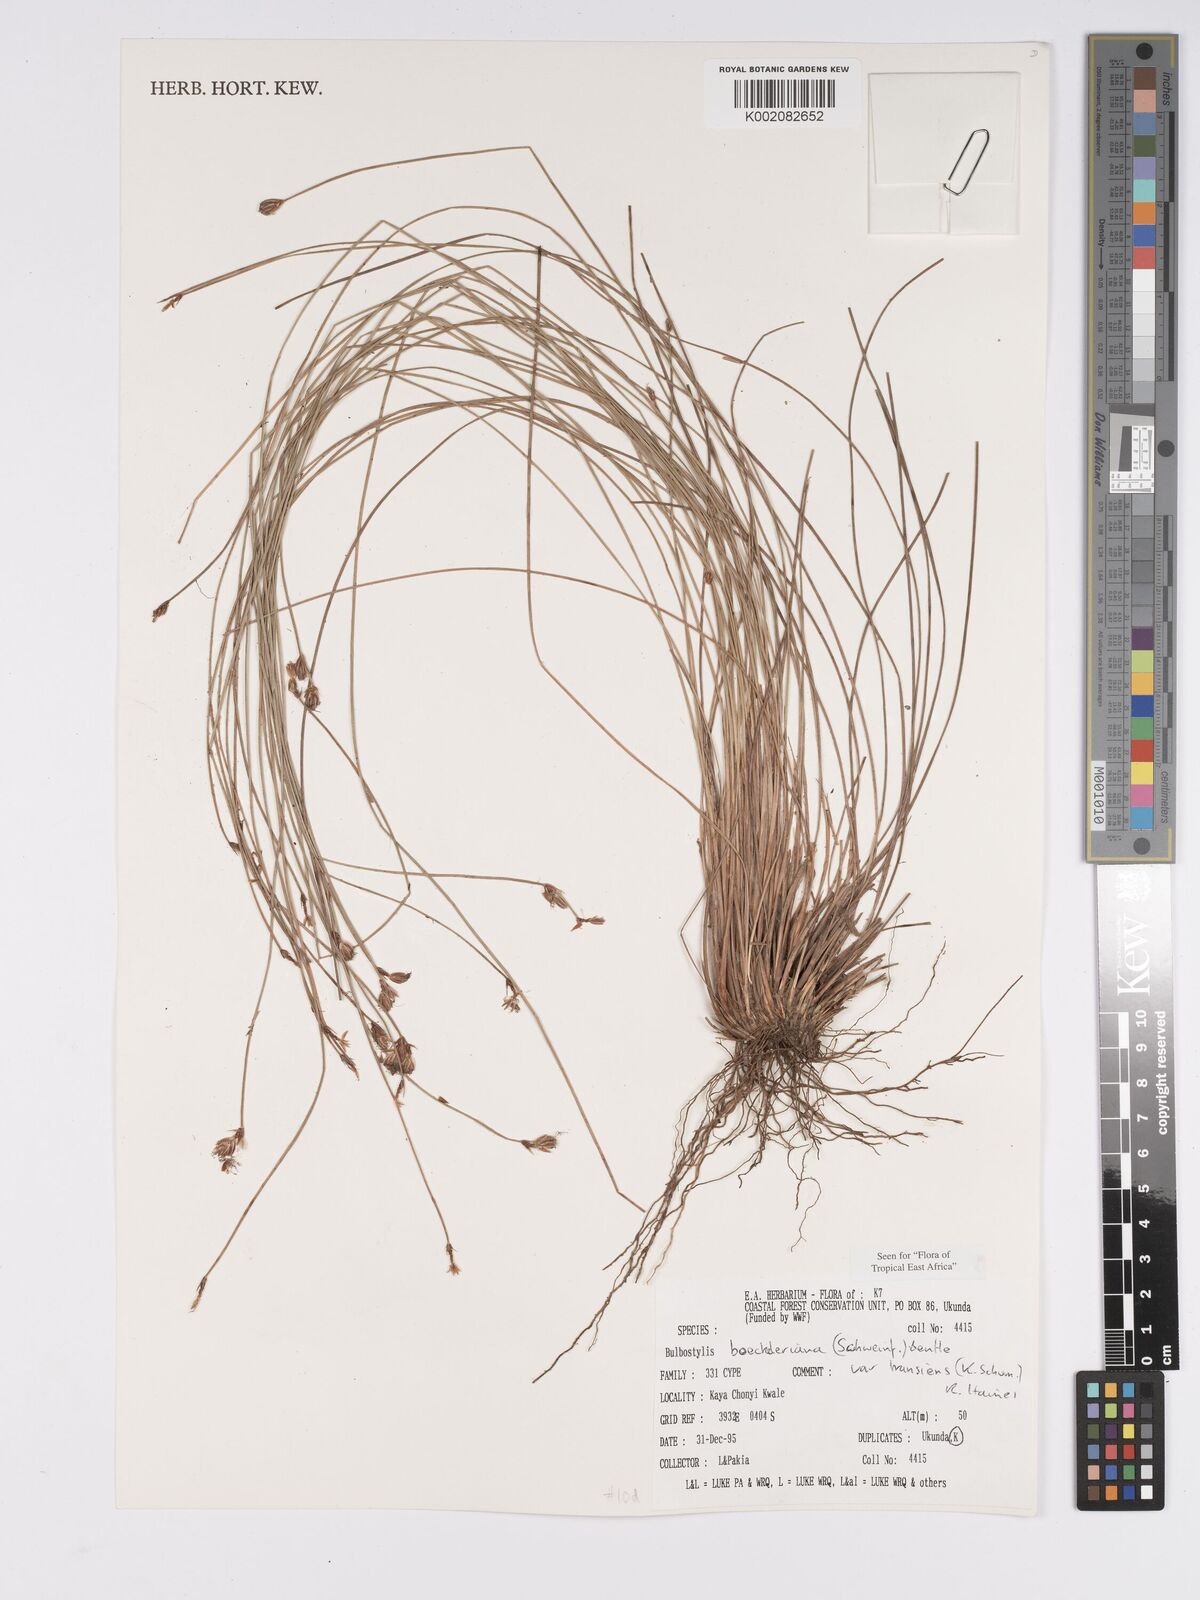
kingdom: Plantae
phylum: Tracheophyta
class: Liliopsida
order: Poales
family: Cyperaceae
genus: Bulbostylis
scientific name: Bulbostylis boeckeleriana
